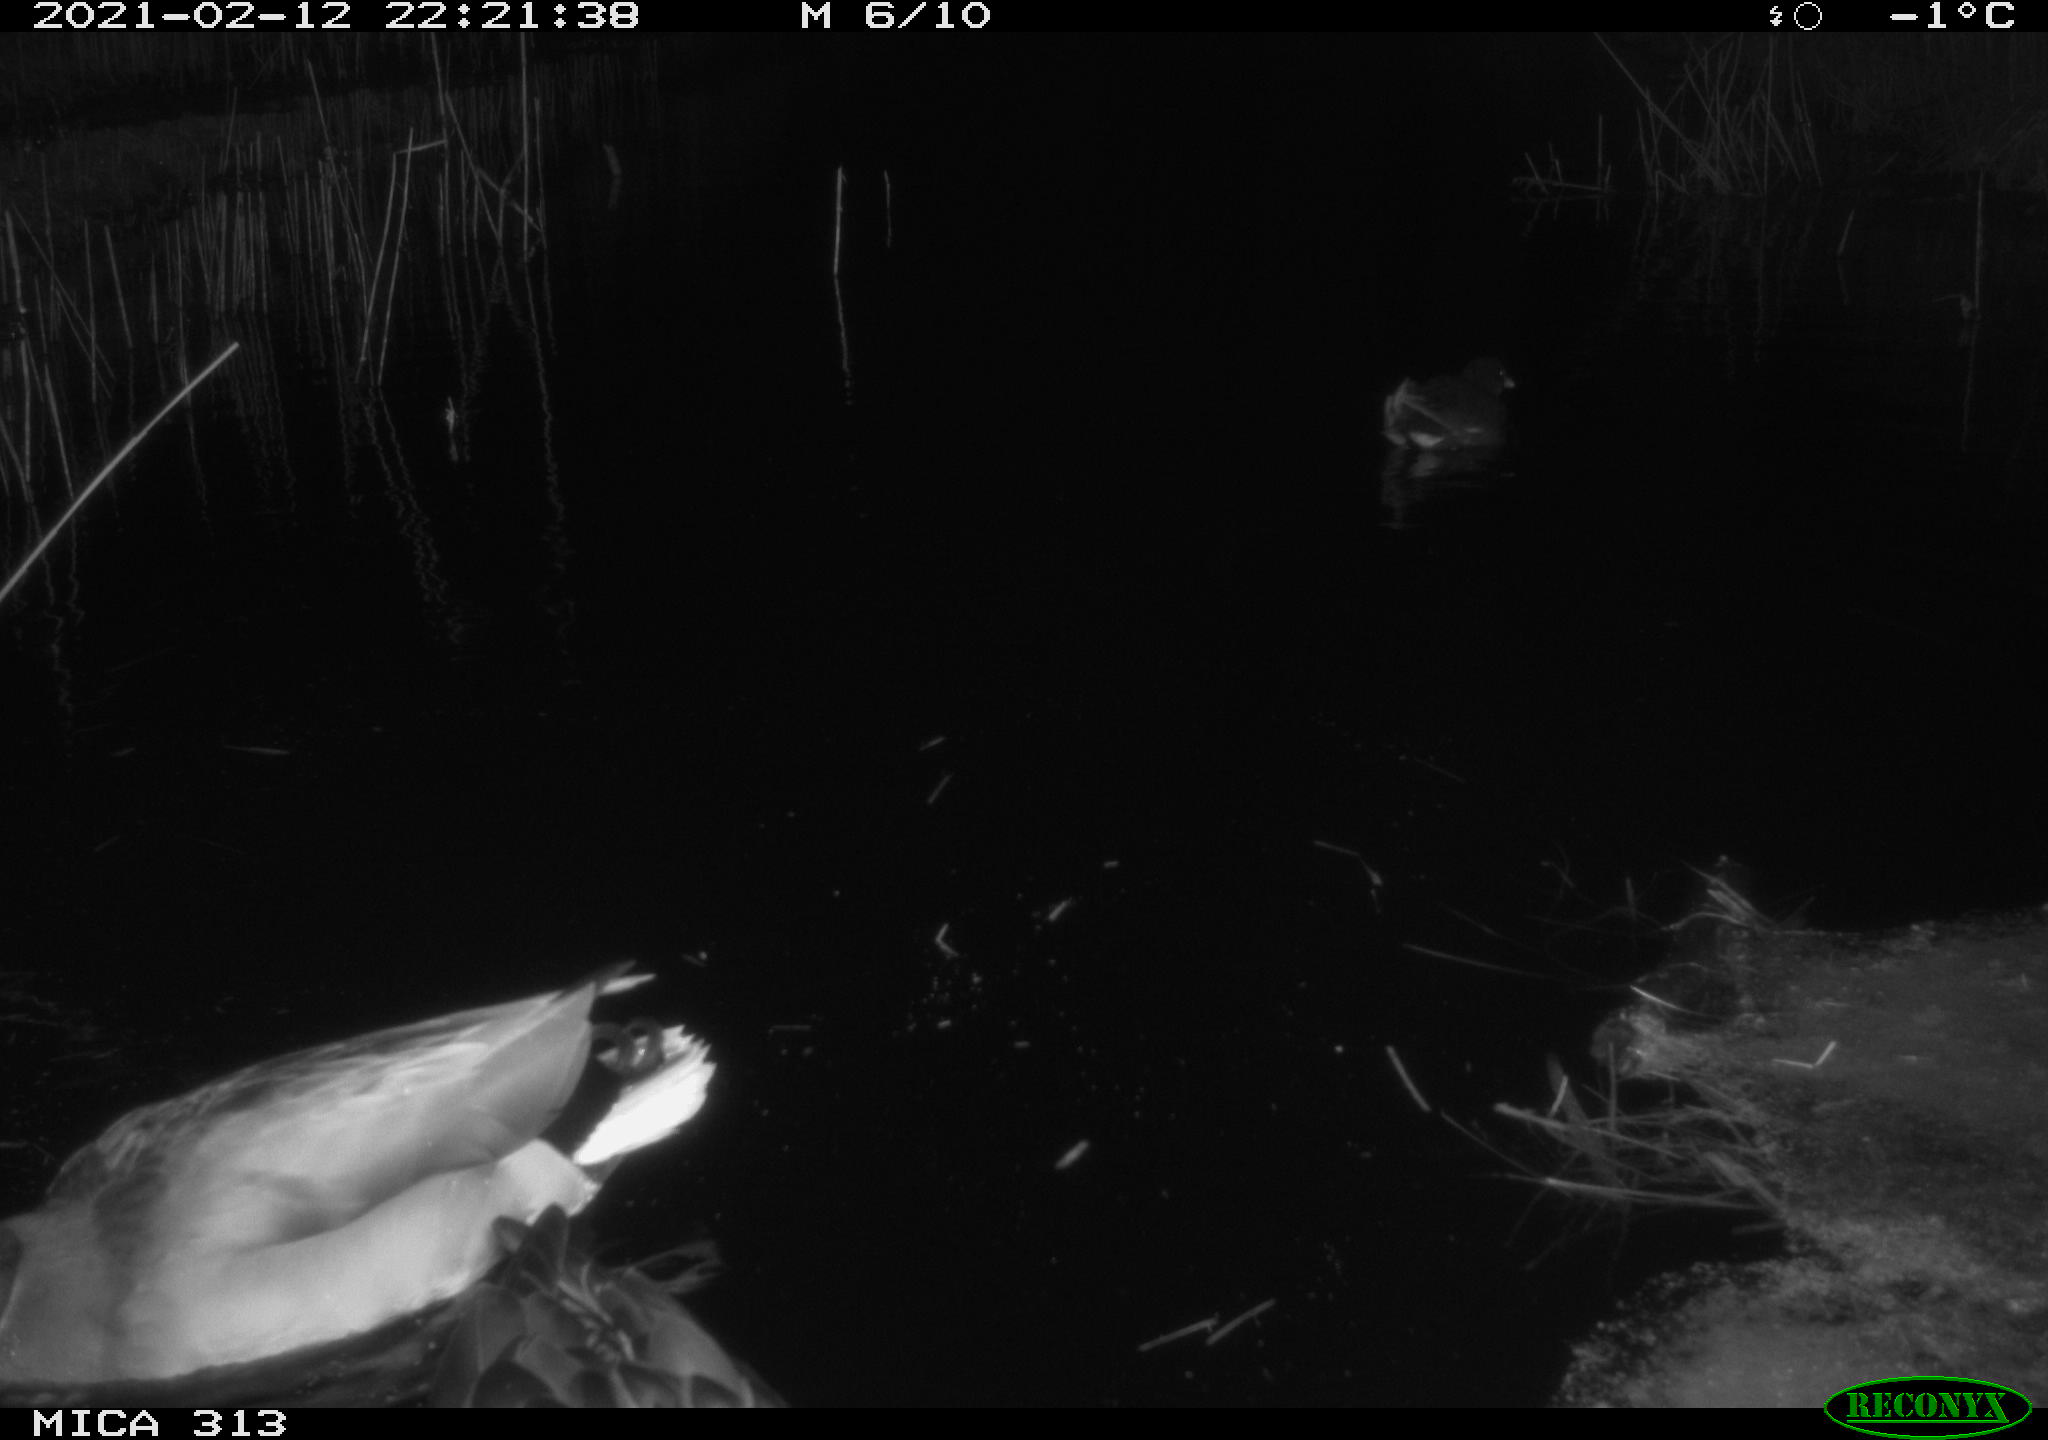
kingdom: Animalia
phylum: Chordata
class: Aves
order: Anseriformes
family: Anatidae
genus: Anas
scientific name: Anas
